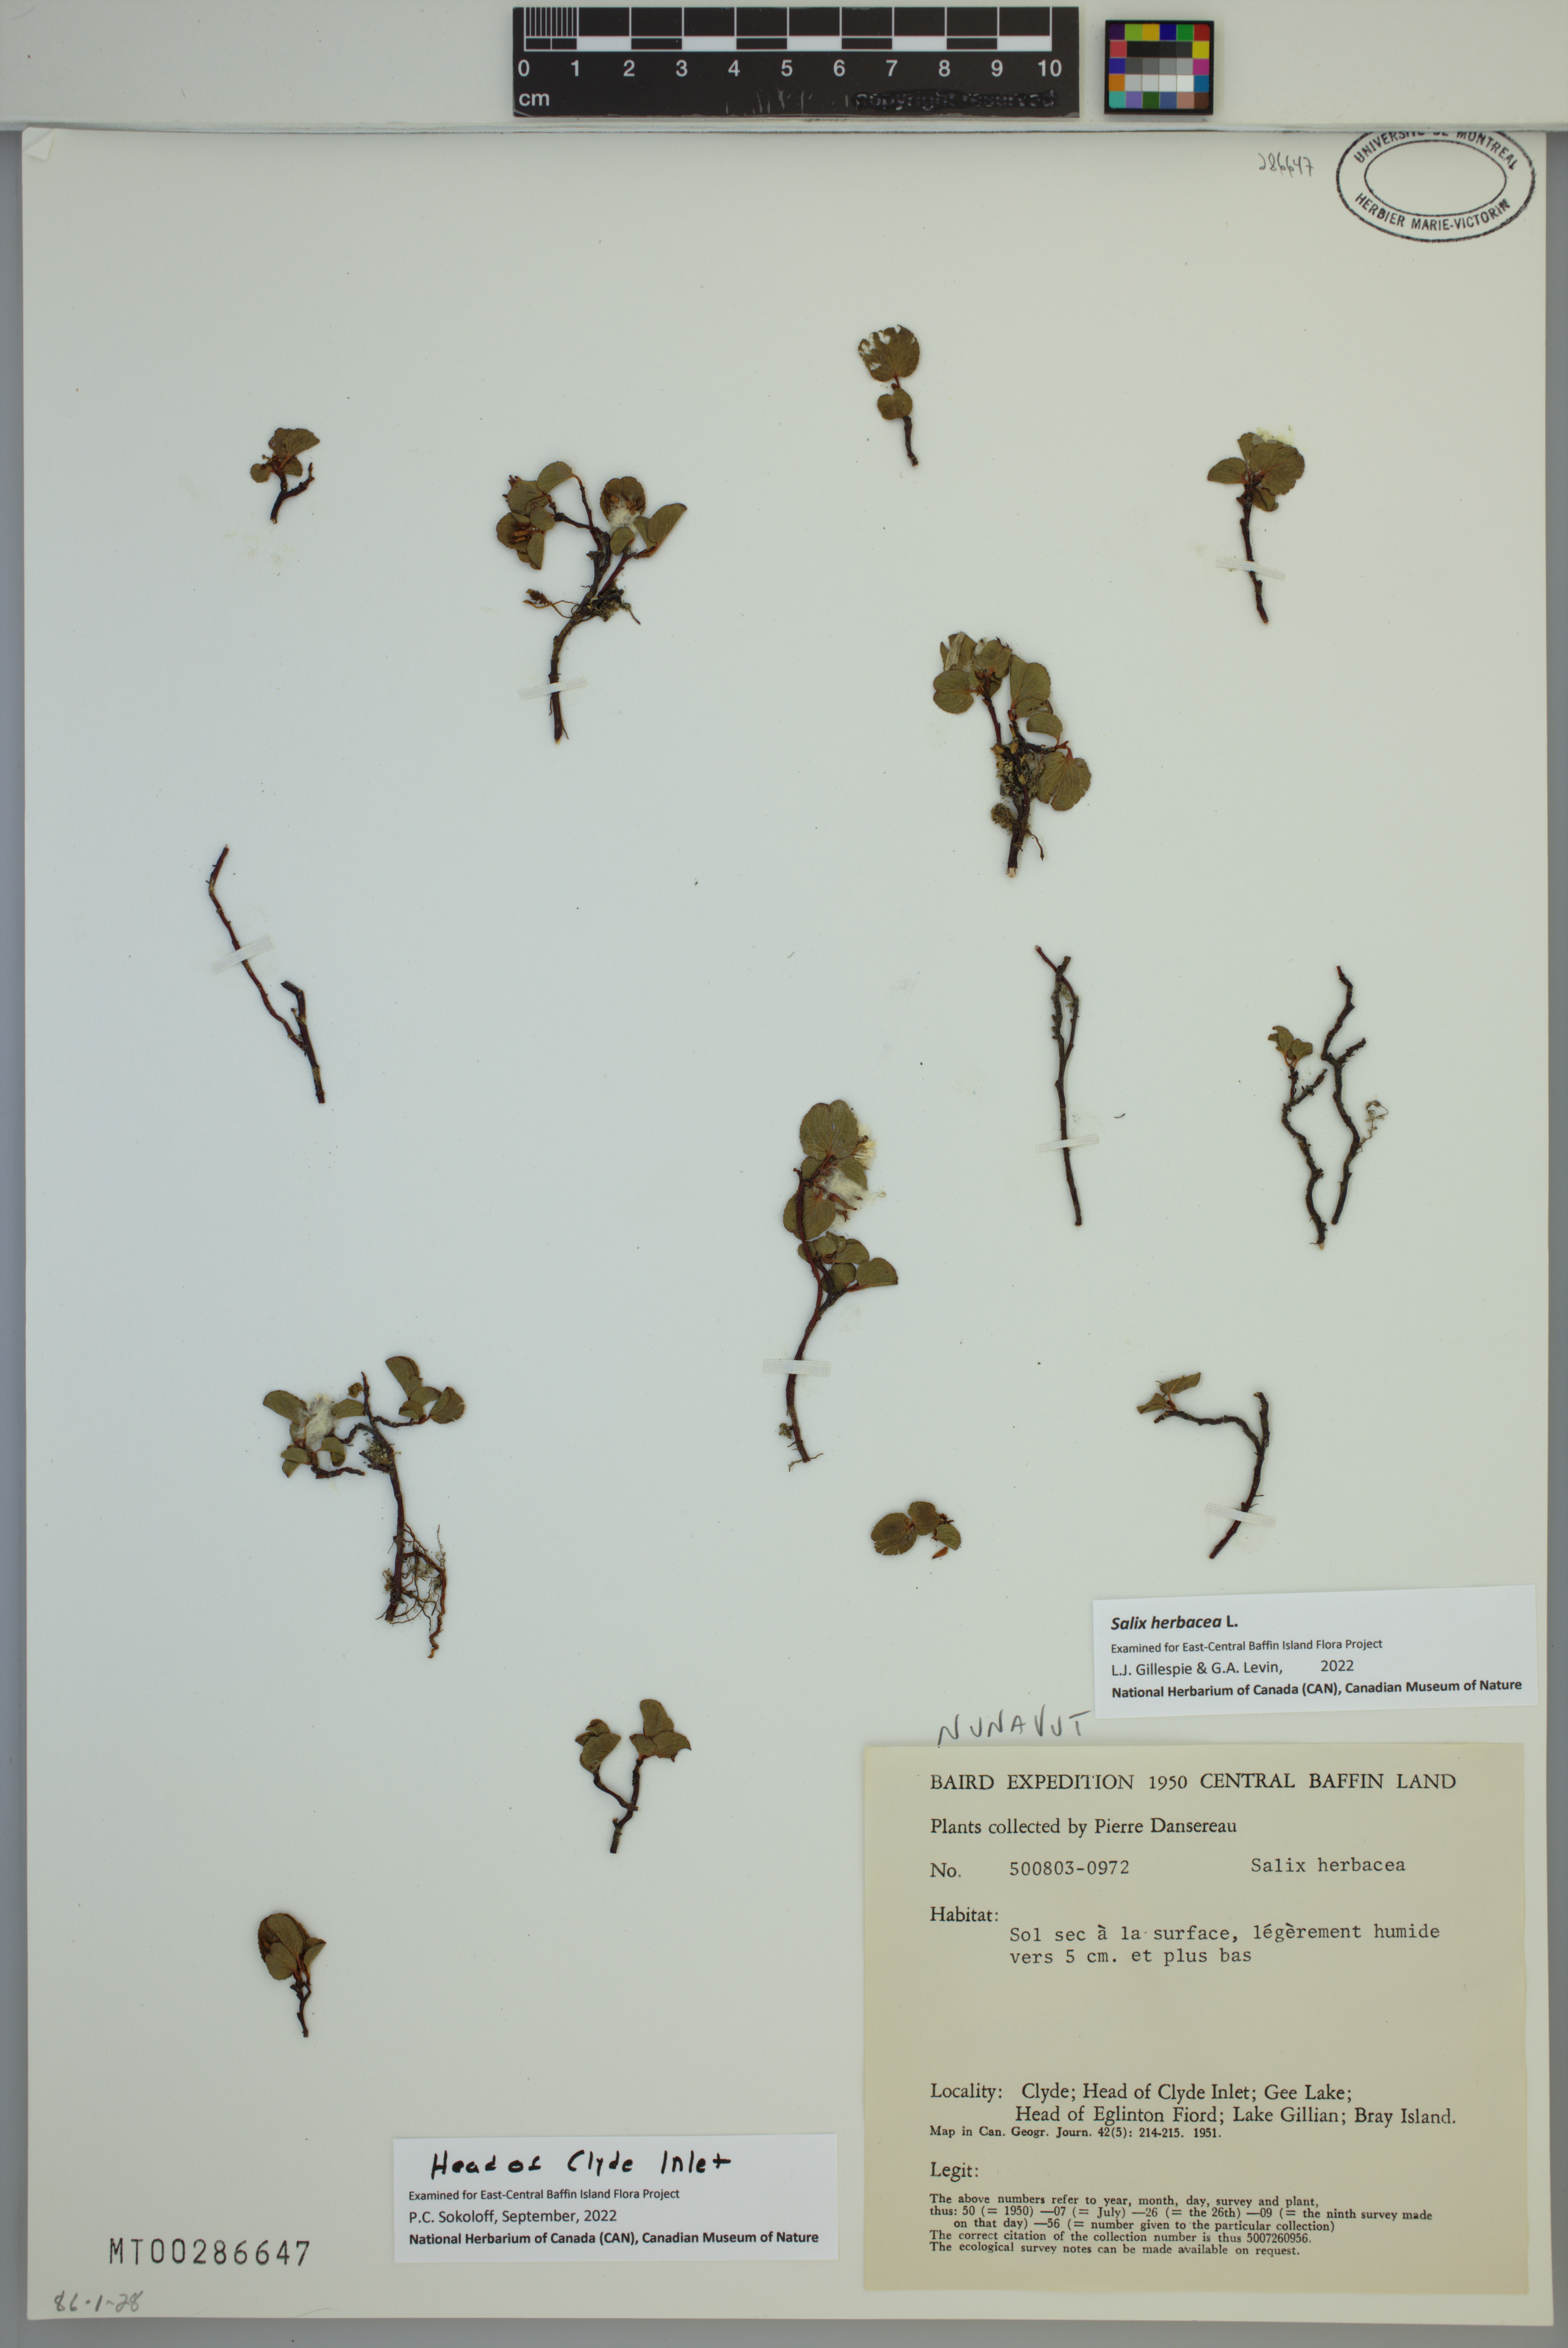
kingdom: Plantae
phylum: Tracheophyta
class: Magnoliopsida
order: Malpighiales
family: Salicaceae
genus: Salix
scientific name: Salix herbacea
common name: Dwarf willow
